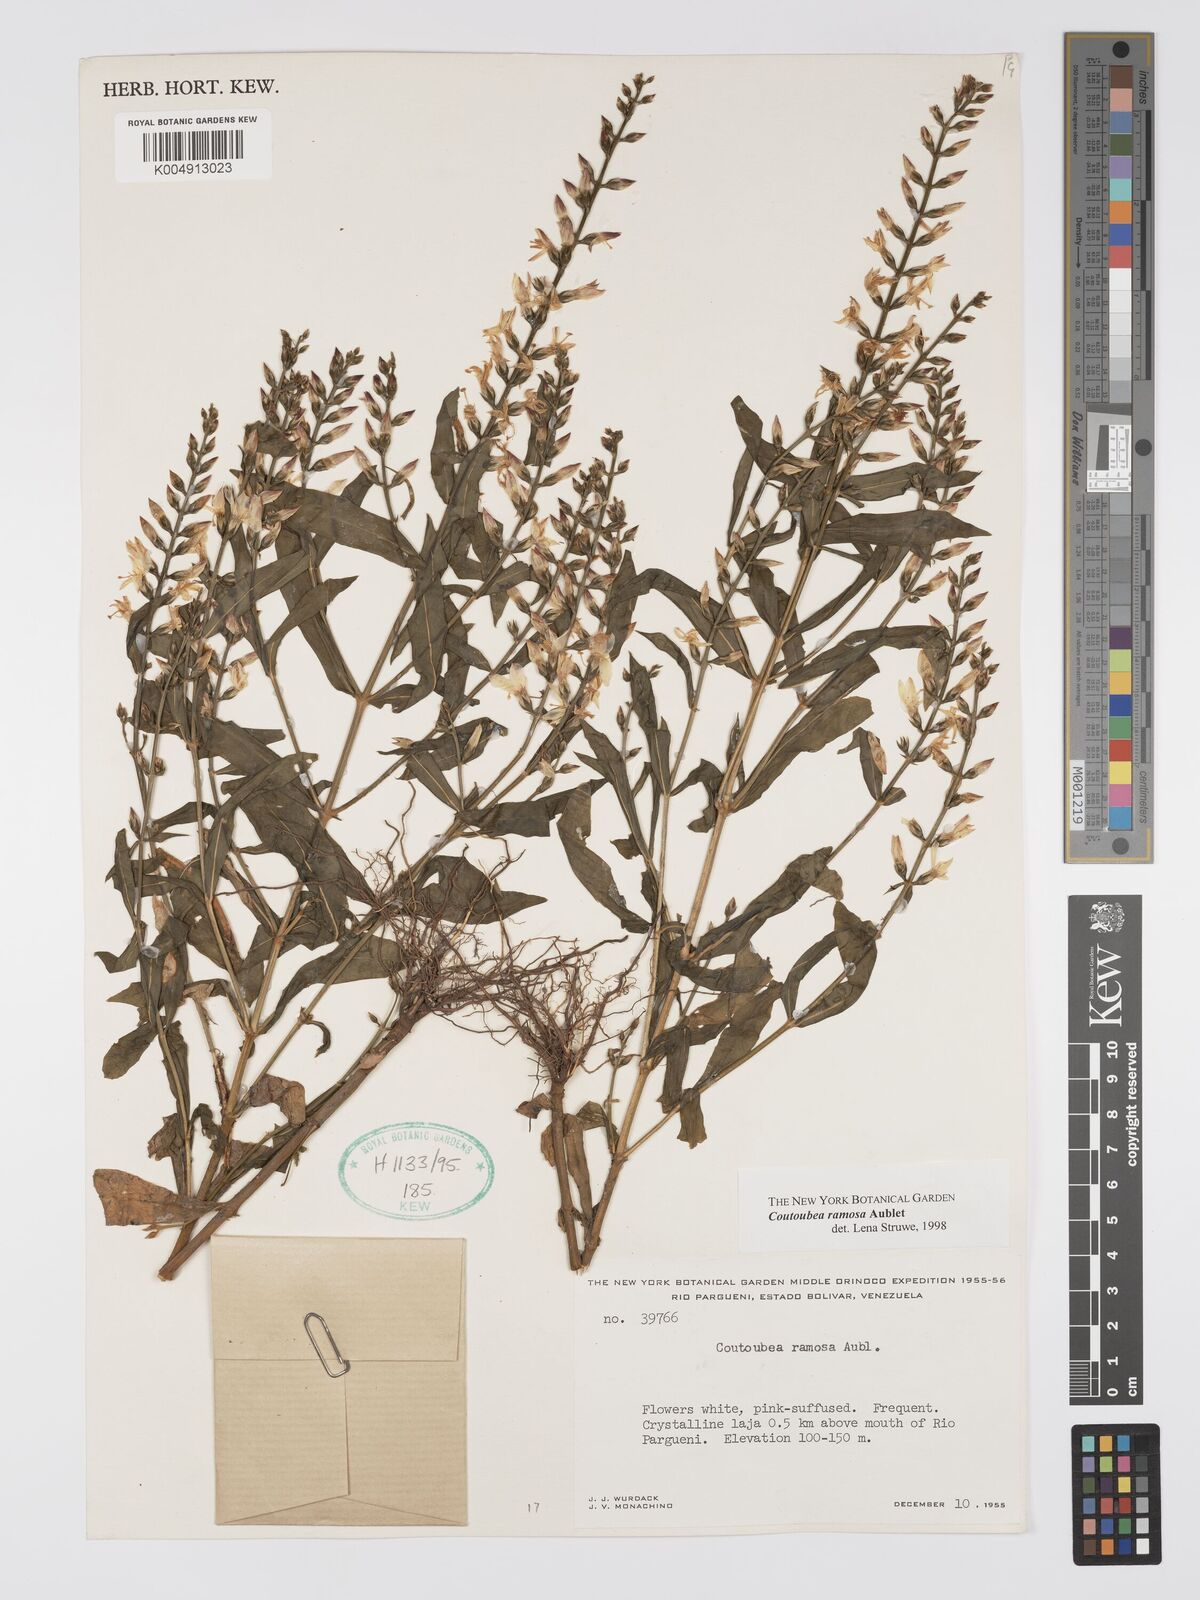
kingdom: Plantae
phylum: Tracheophyta
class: Magnoliopsida
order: Gentianales
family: Gentianaceae
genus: Coutoubea
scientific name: Coutoubea ramosa
